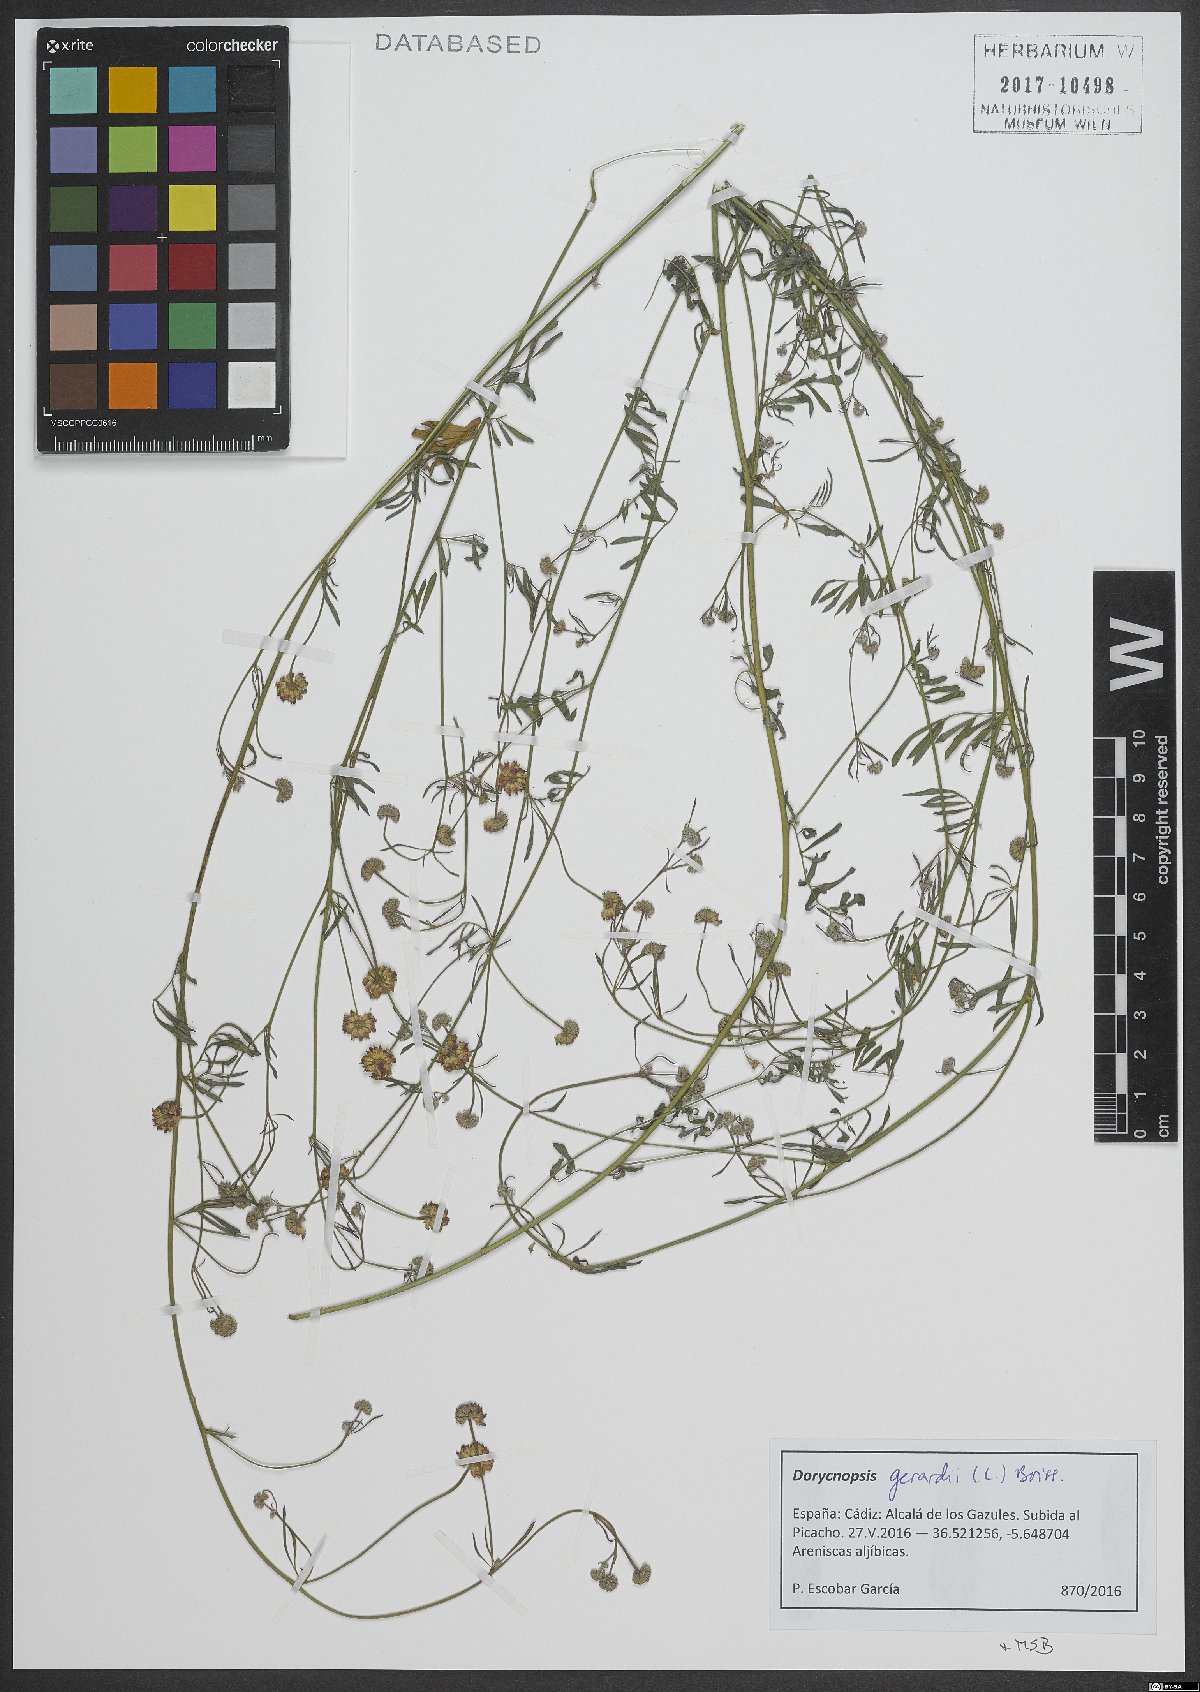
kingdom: Plantae
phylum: Tracheophyta
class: Magnoliopsida
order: Fabales
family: Fabaceae
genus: Dorycnopsis
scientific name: Dorycnopsis gerardi
